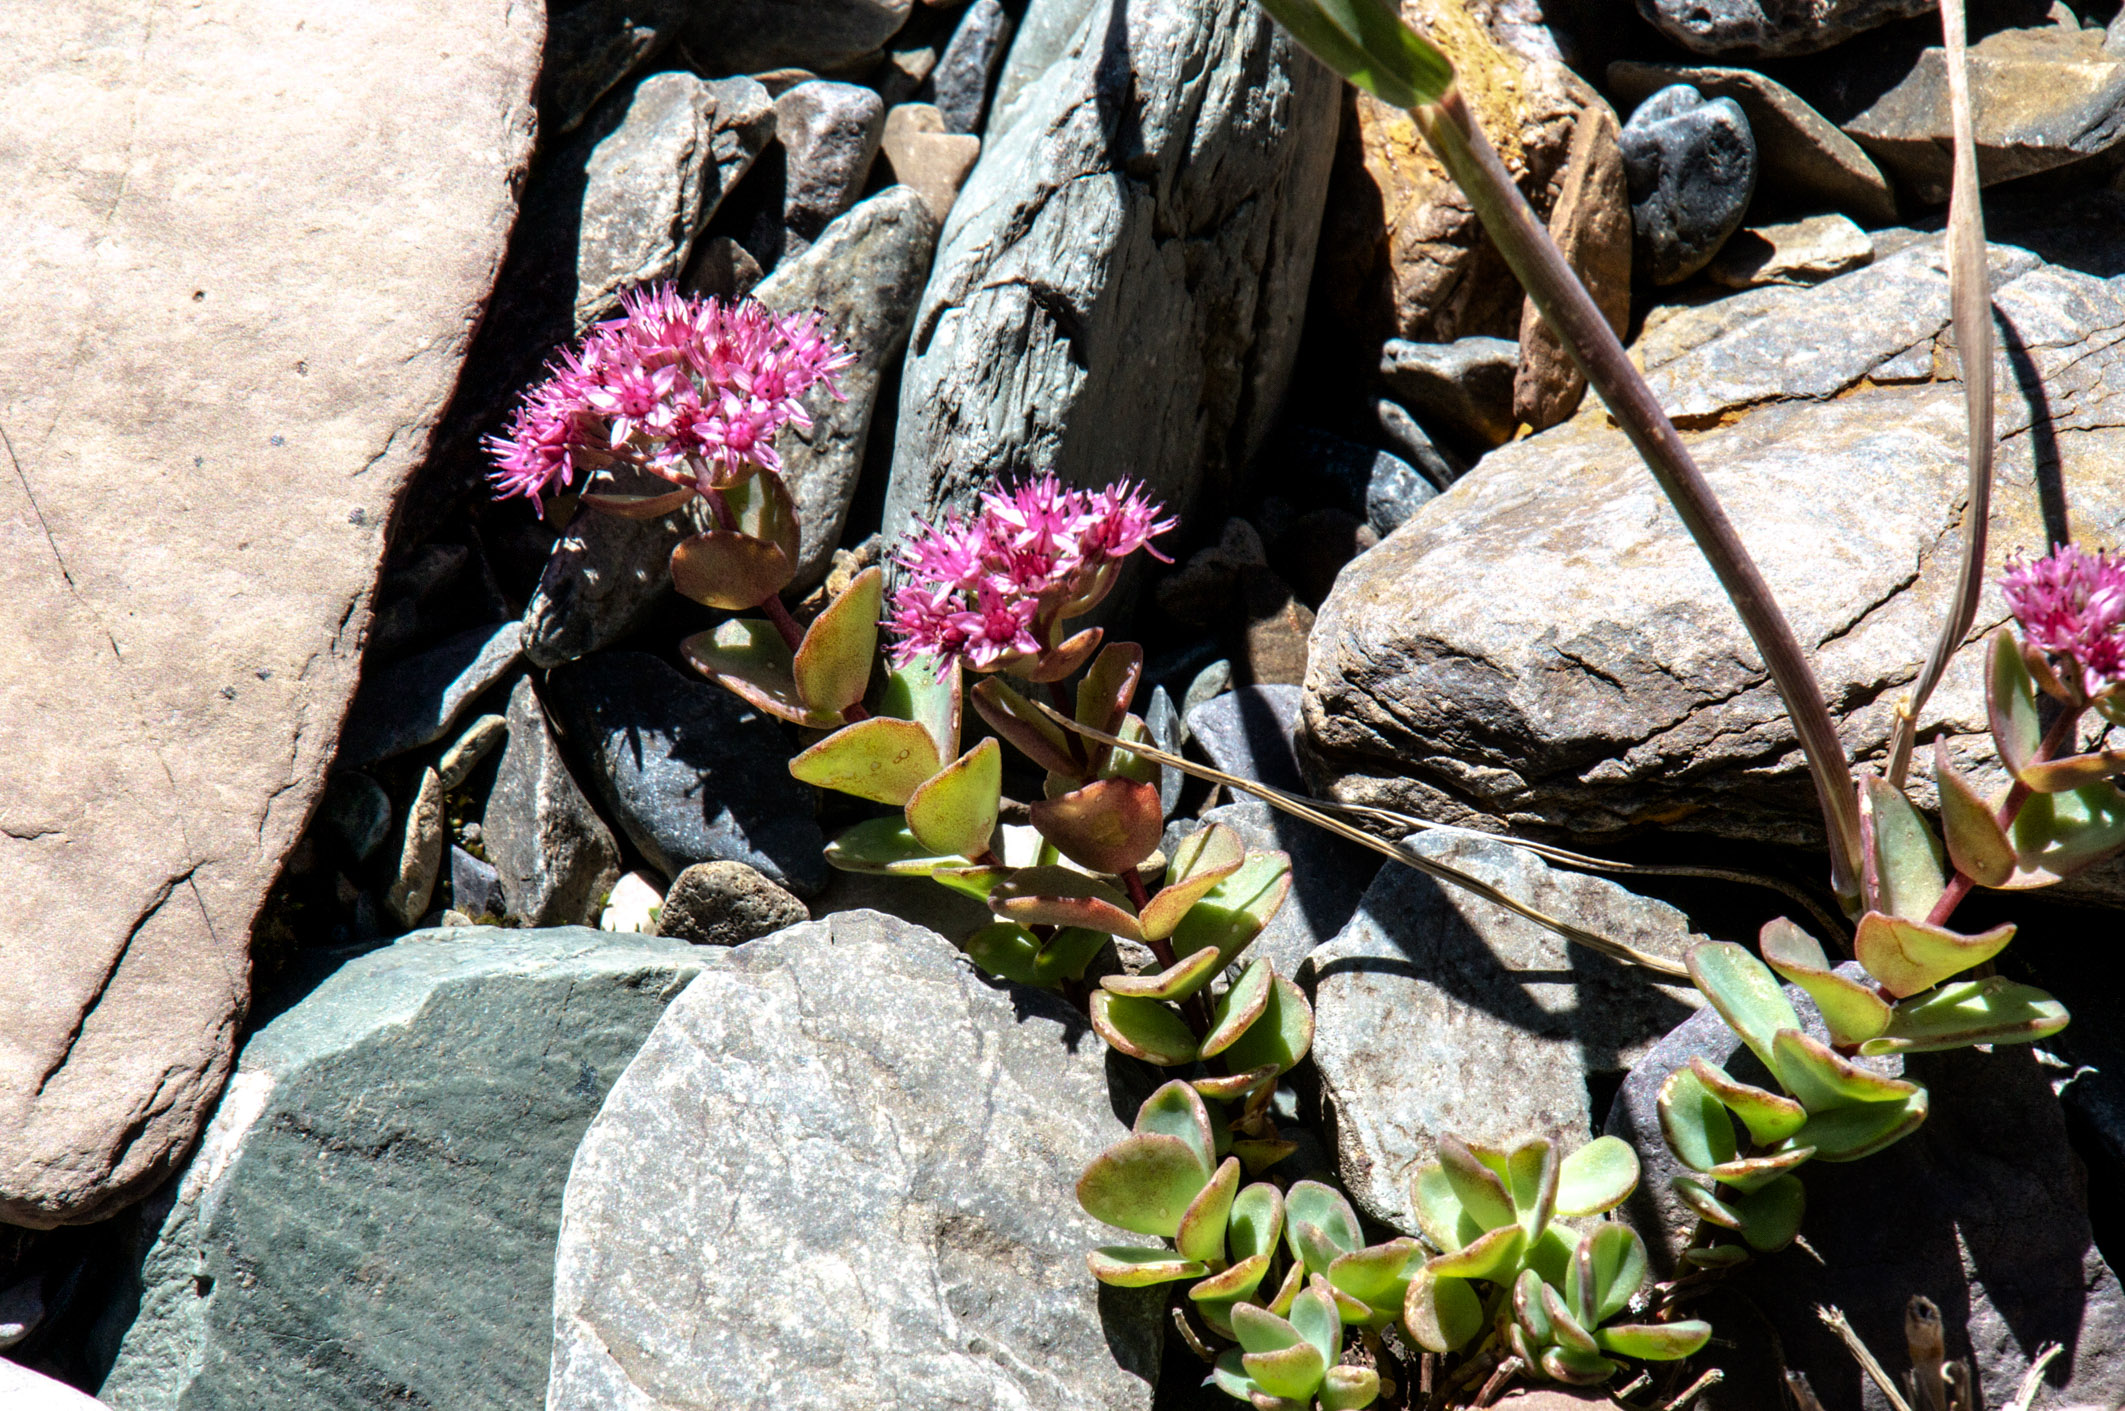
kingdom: Plantae
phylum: Tracheophyta
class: Magnoliopsida
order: Saxifragales
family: Crassulaceae
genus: Hylotelephium
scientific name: Hylotelephium ewersii
